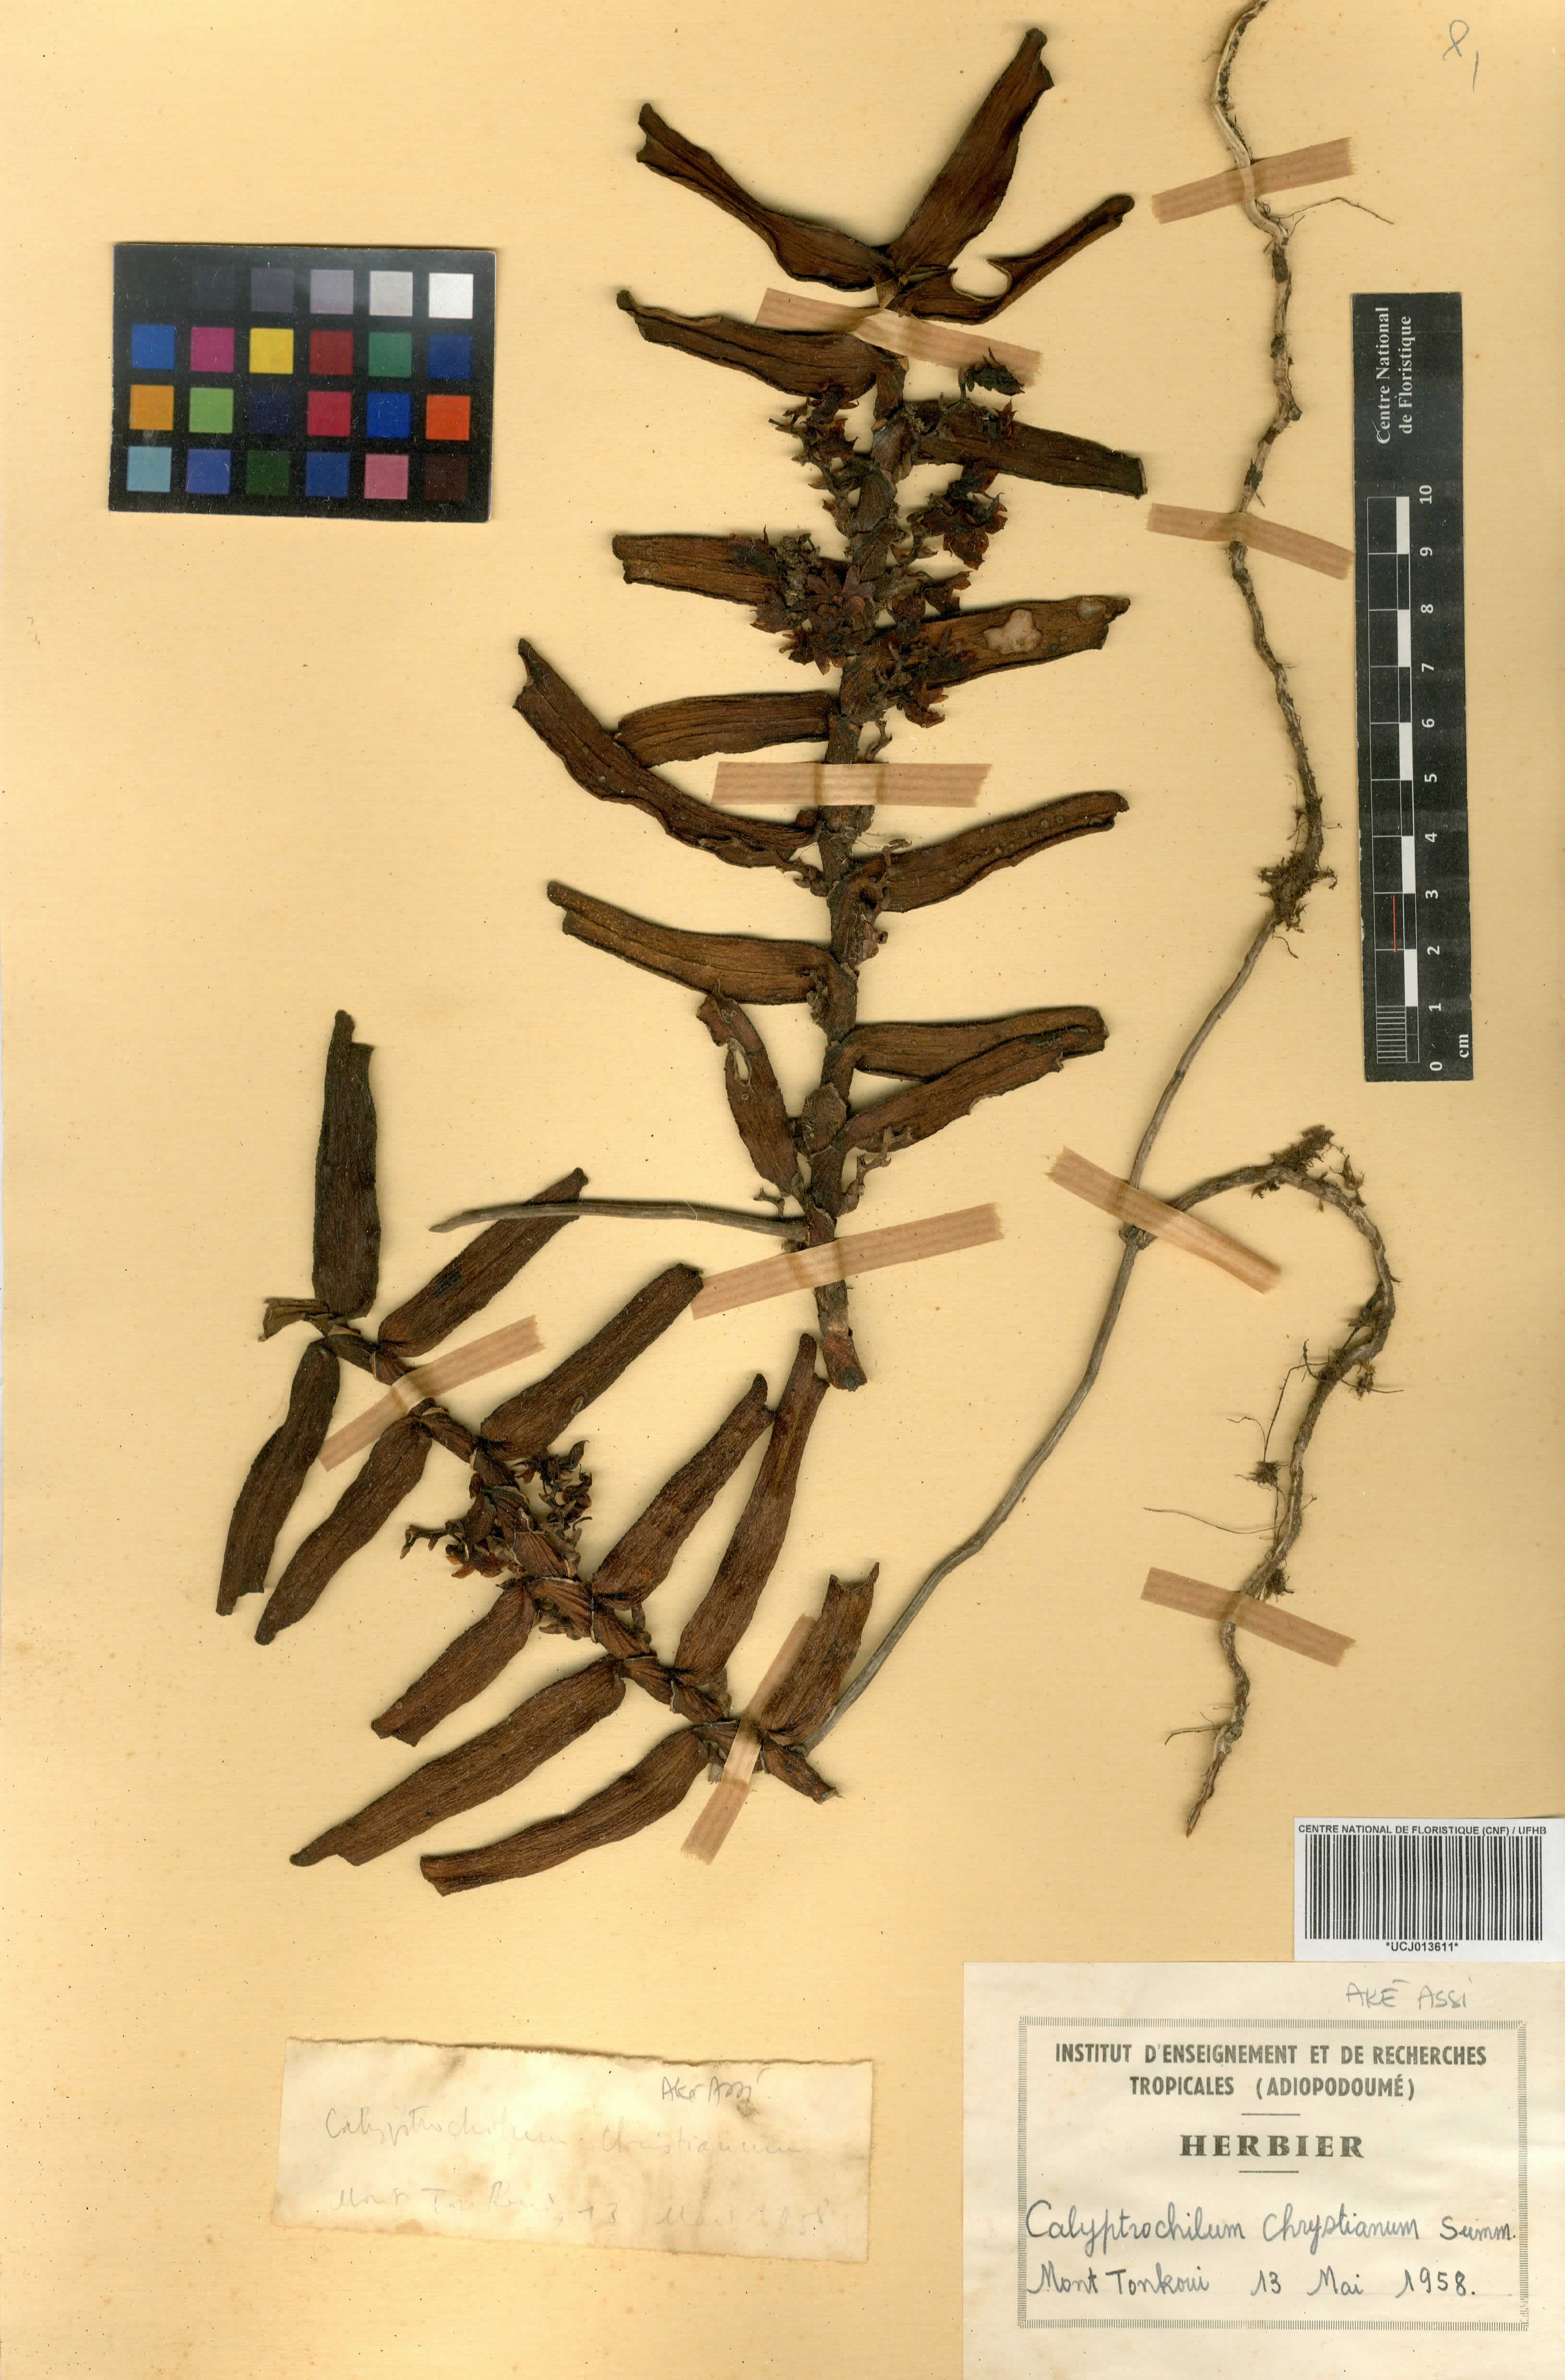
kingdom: Plantae
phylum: Tracheophyta
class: Liliopsida
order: Asparagales
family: Orchidaceae
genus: Calyptrochilum
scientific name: Calyptrochilum christyanum
